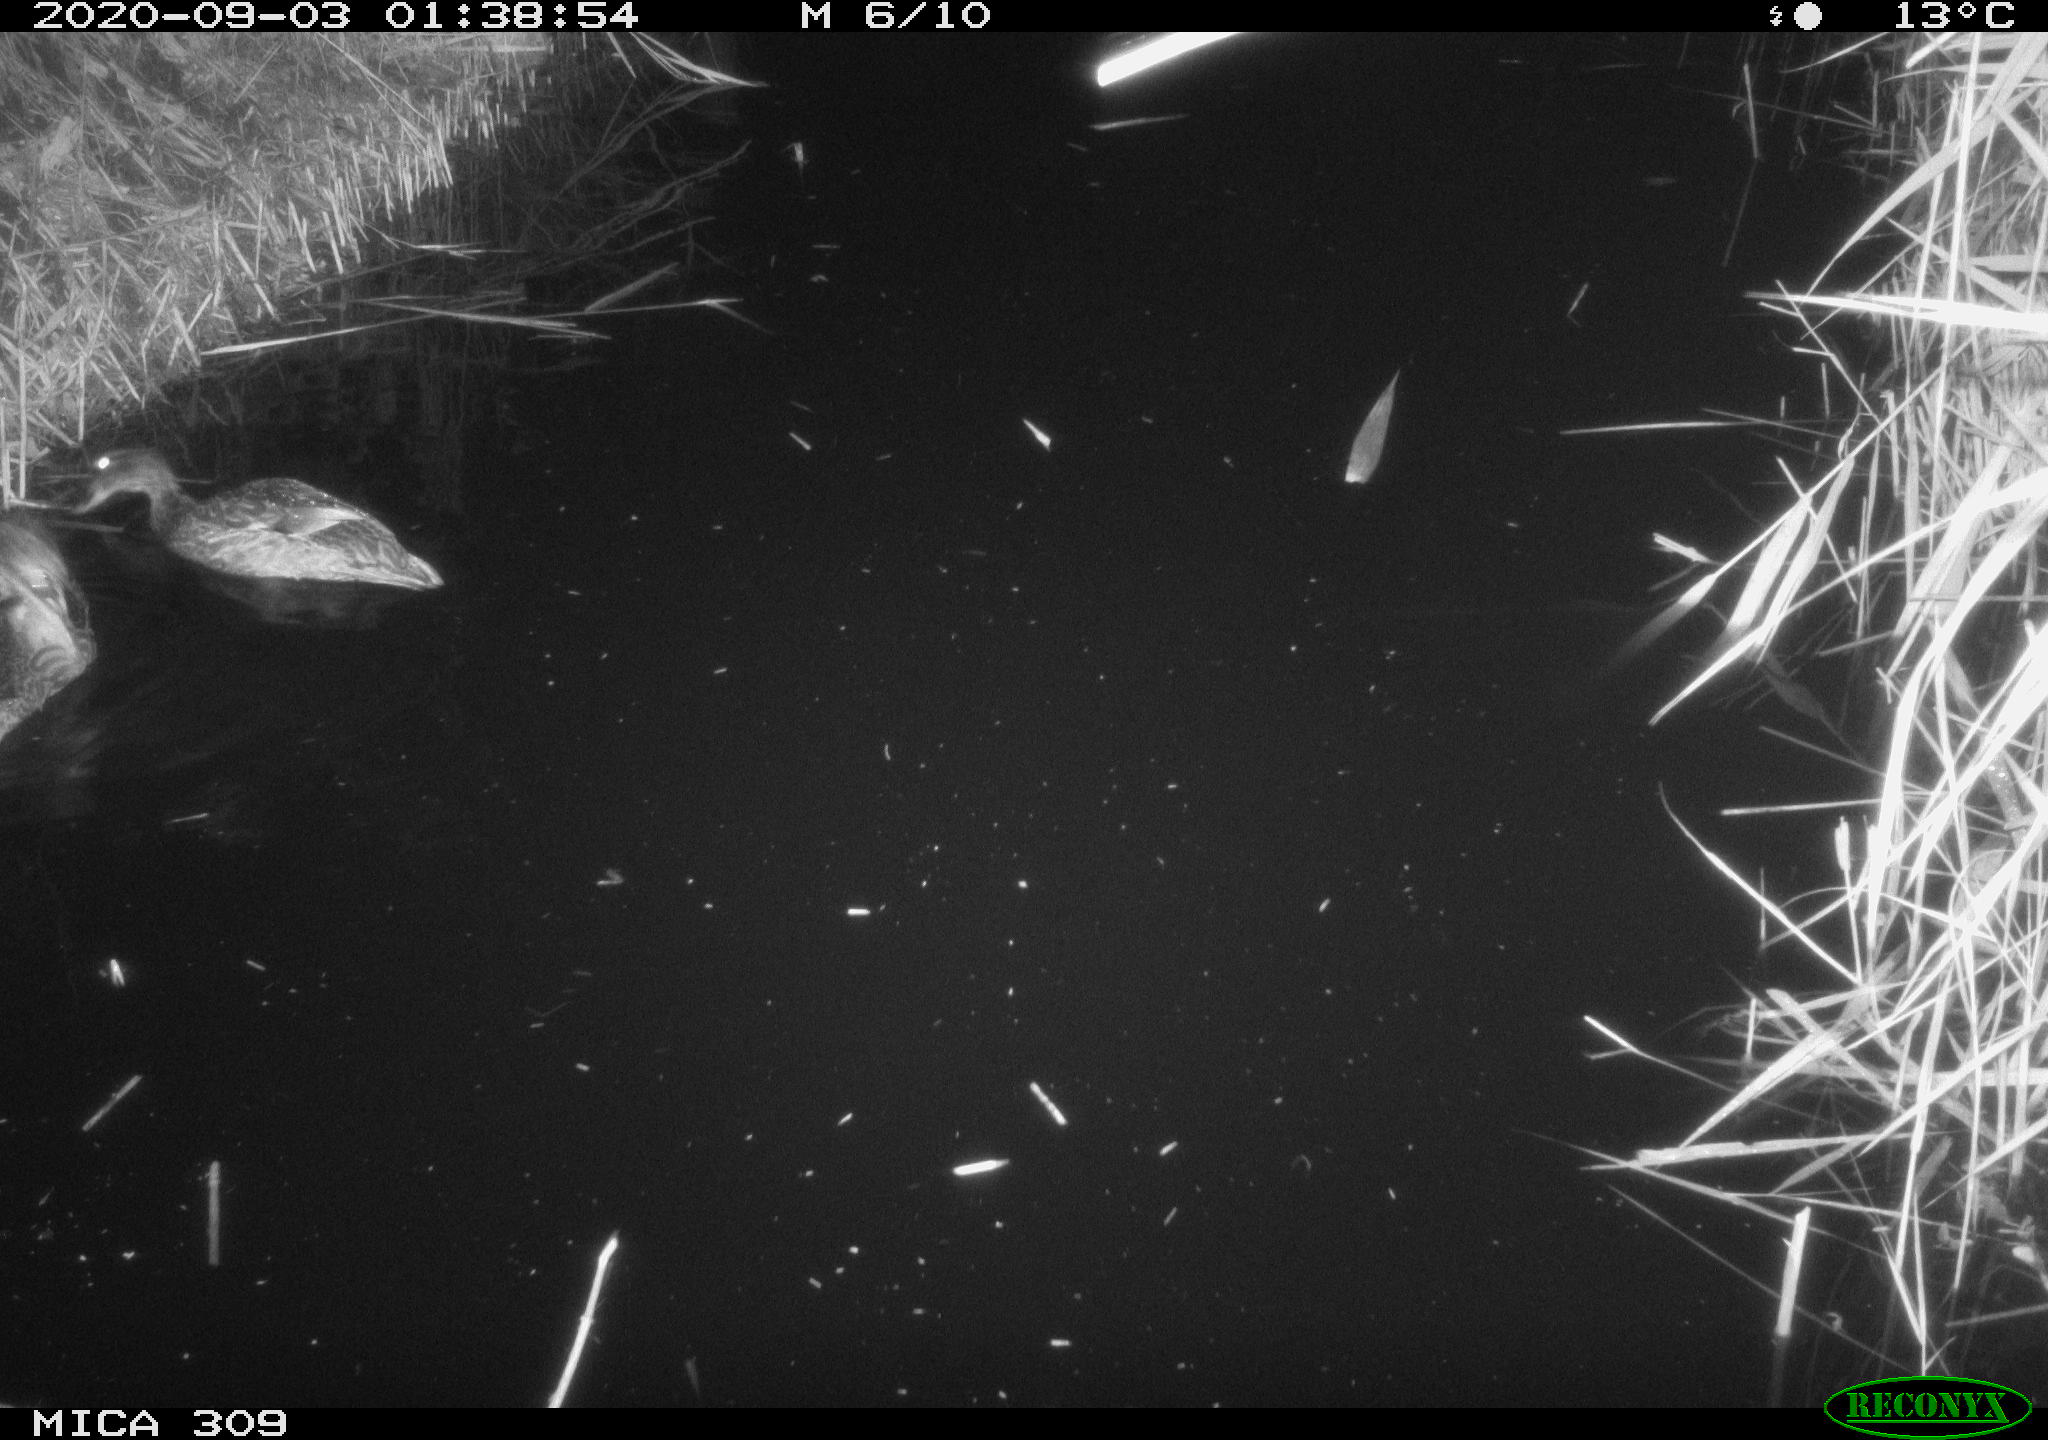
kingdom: Animalia
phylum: Chordata
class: Aves
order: Anseriformes
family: Anatidae
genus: Anas
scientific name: Anas platyrhynchos
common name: Mallard
